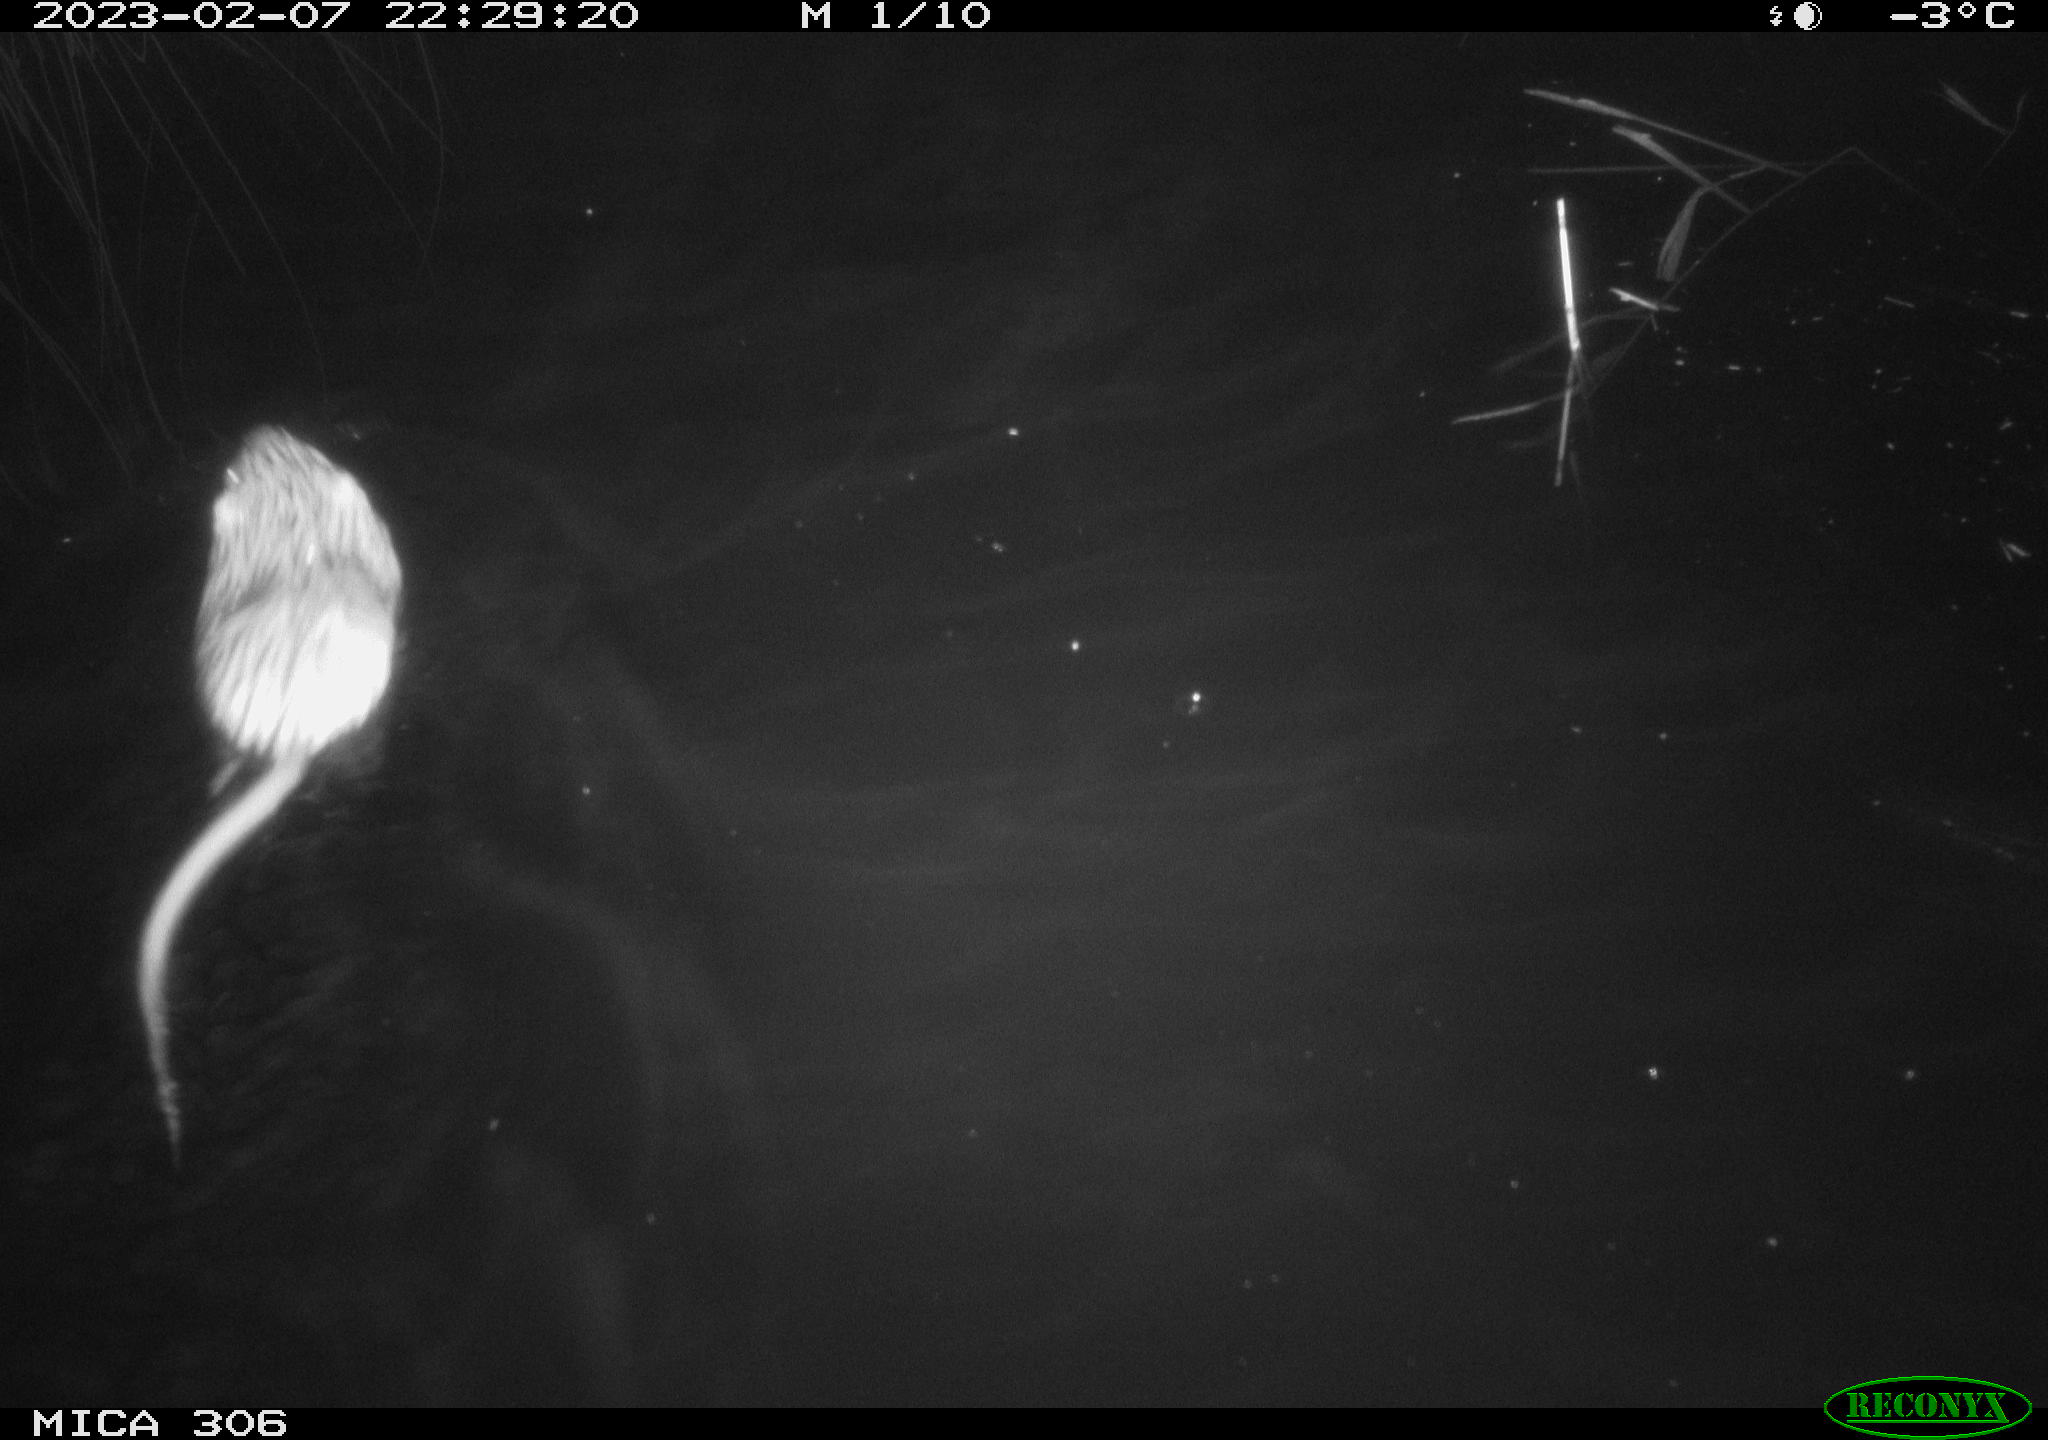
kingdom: Animalia
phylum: Chordata
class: Mammalia
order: Rodentia
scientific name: Rodentia
